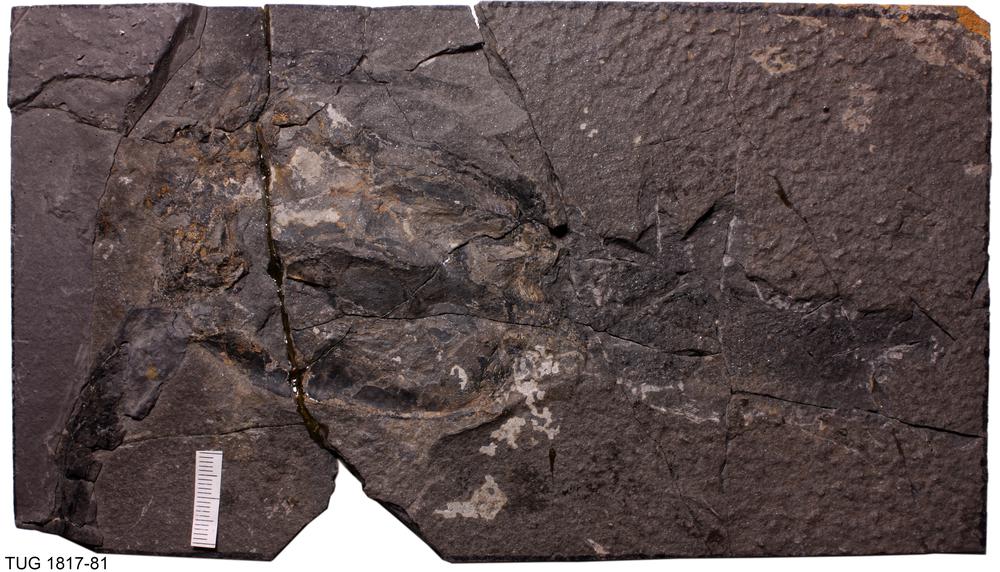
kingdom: Animalia
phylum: Chordata
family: Asterolepididae
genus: Pterichthyodes
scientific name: Pterichthyodes Pterichthys milleri
